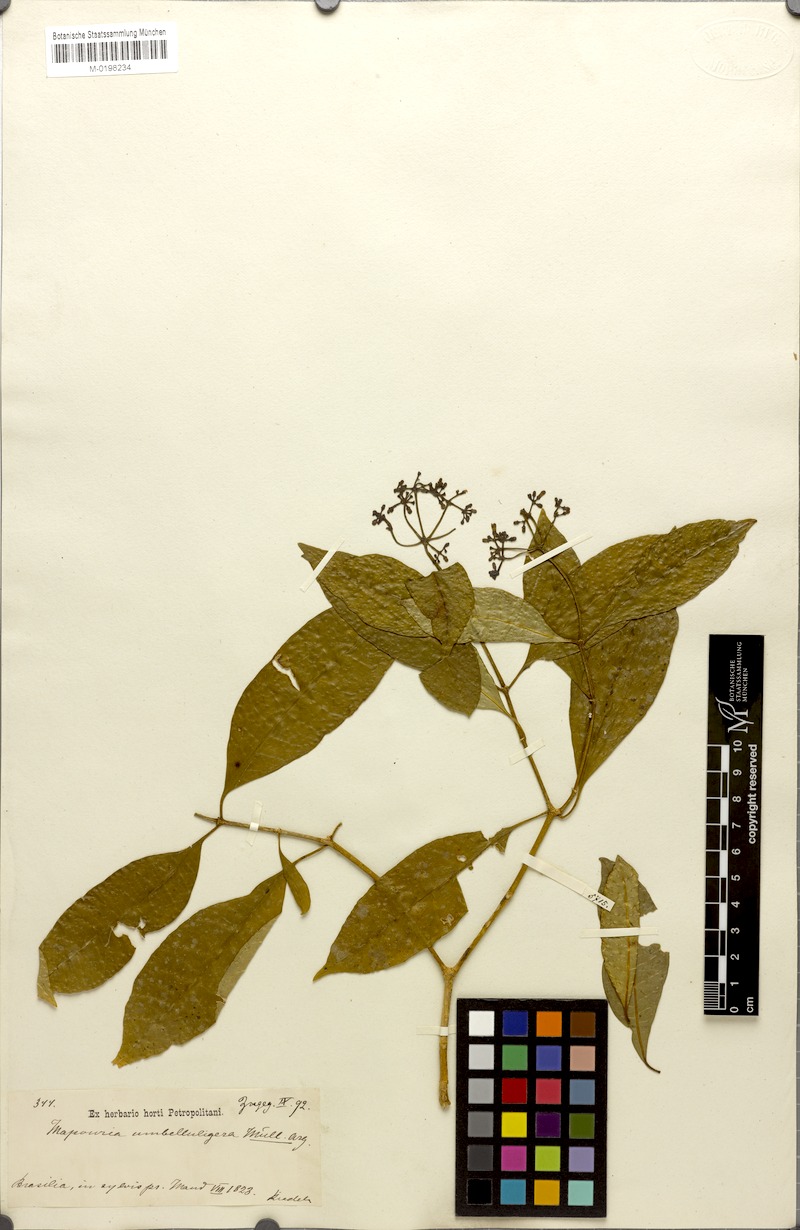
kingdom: Plantae
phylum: Tracheophyta
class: Magnoliopsida
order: Gentianales
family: Rubiaceae
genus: Psychotria
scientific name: Psychotria nemorosa
